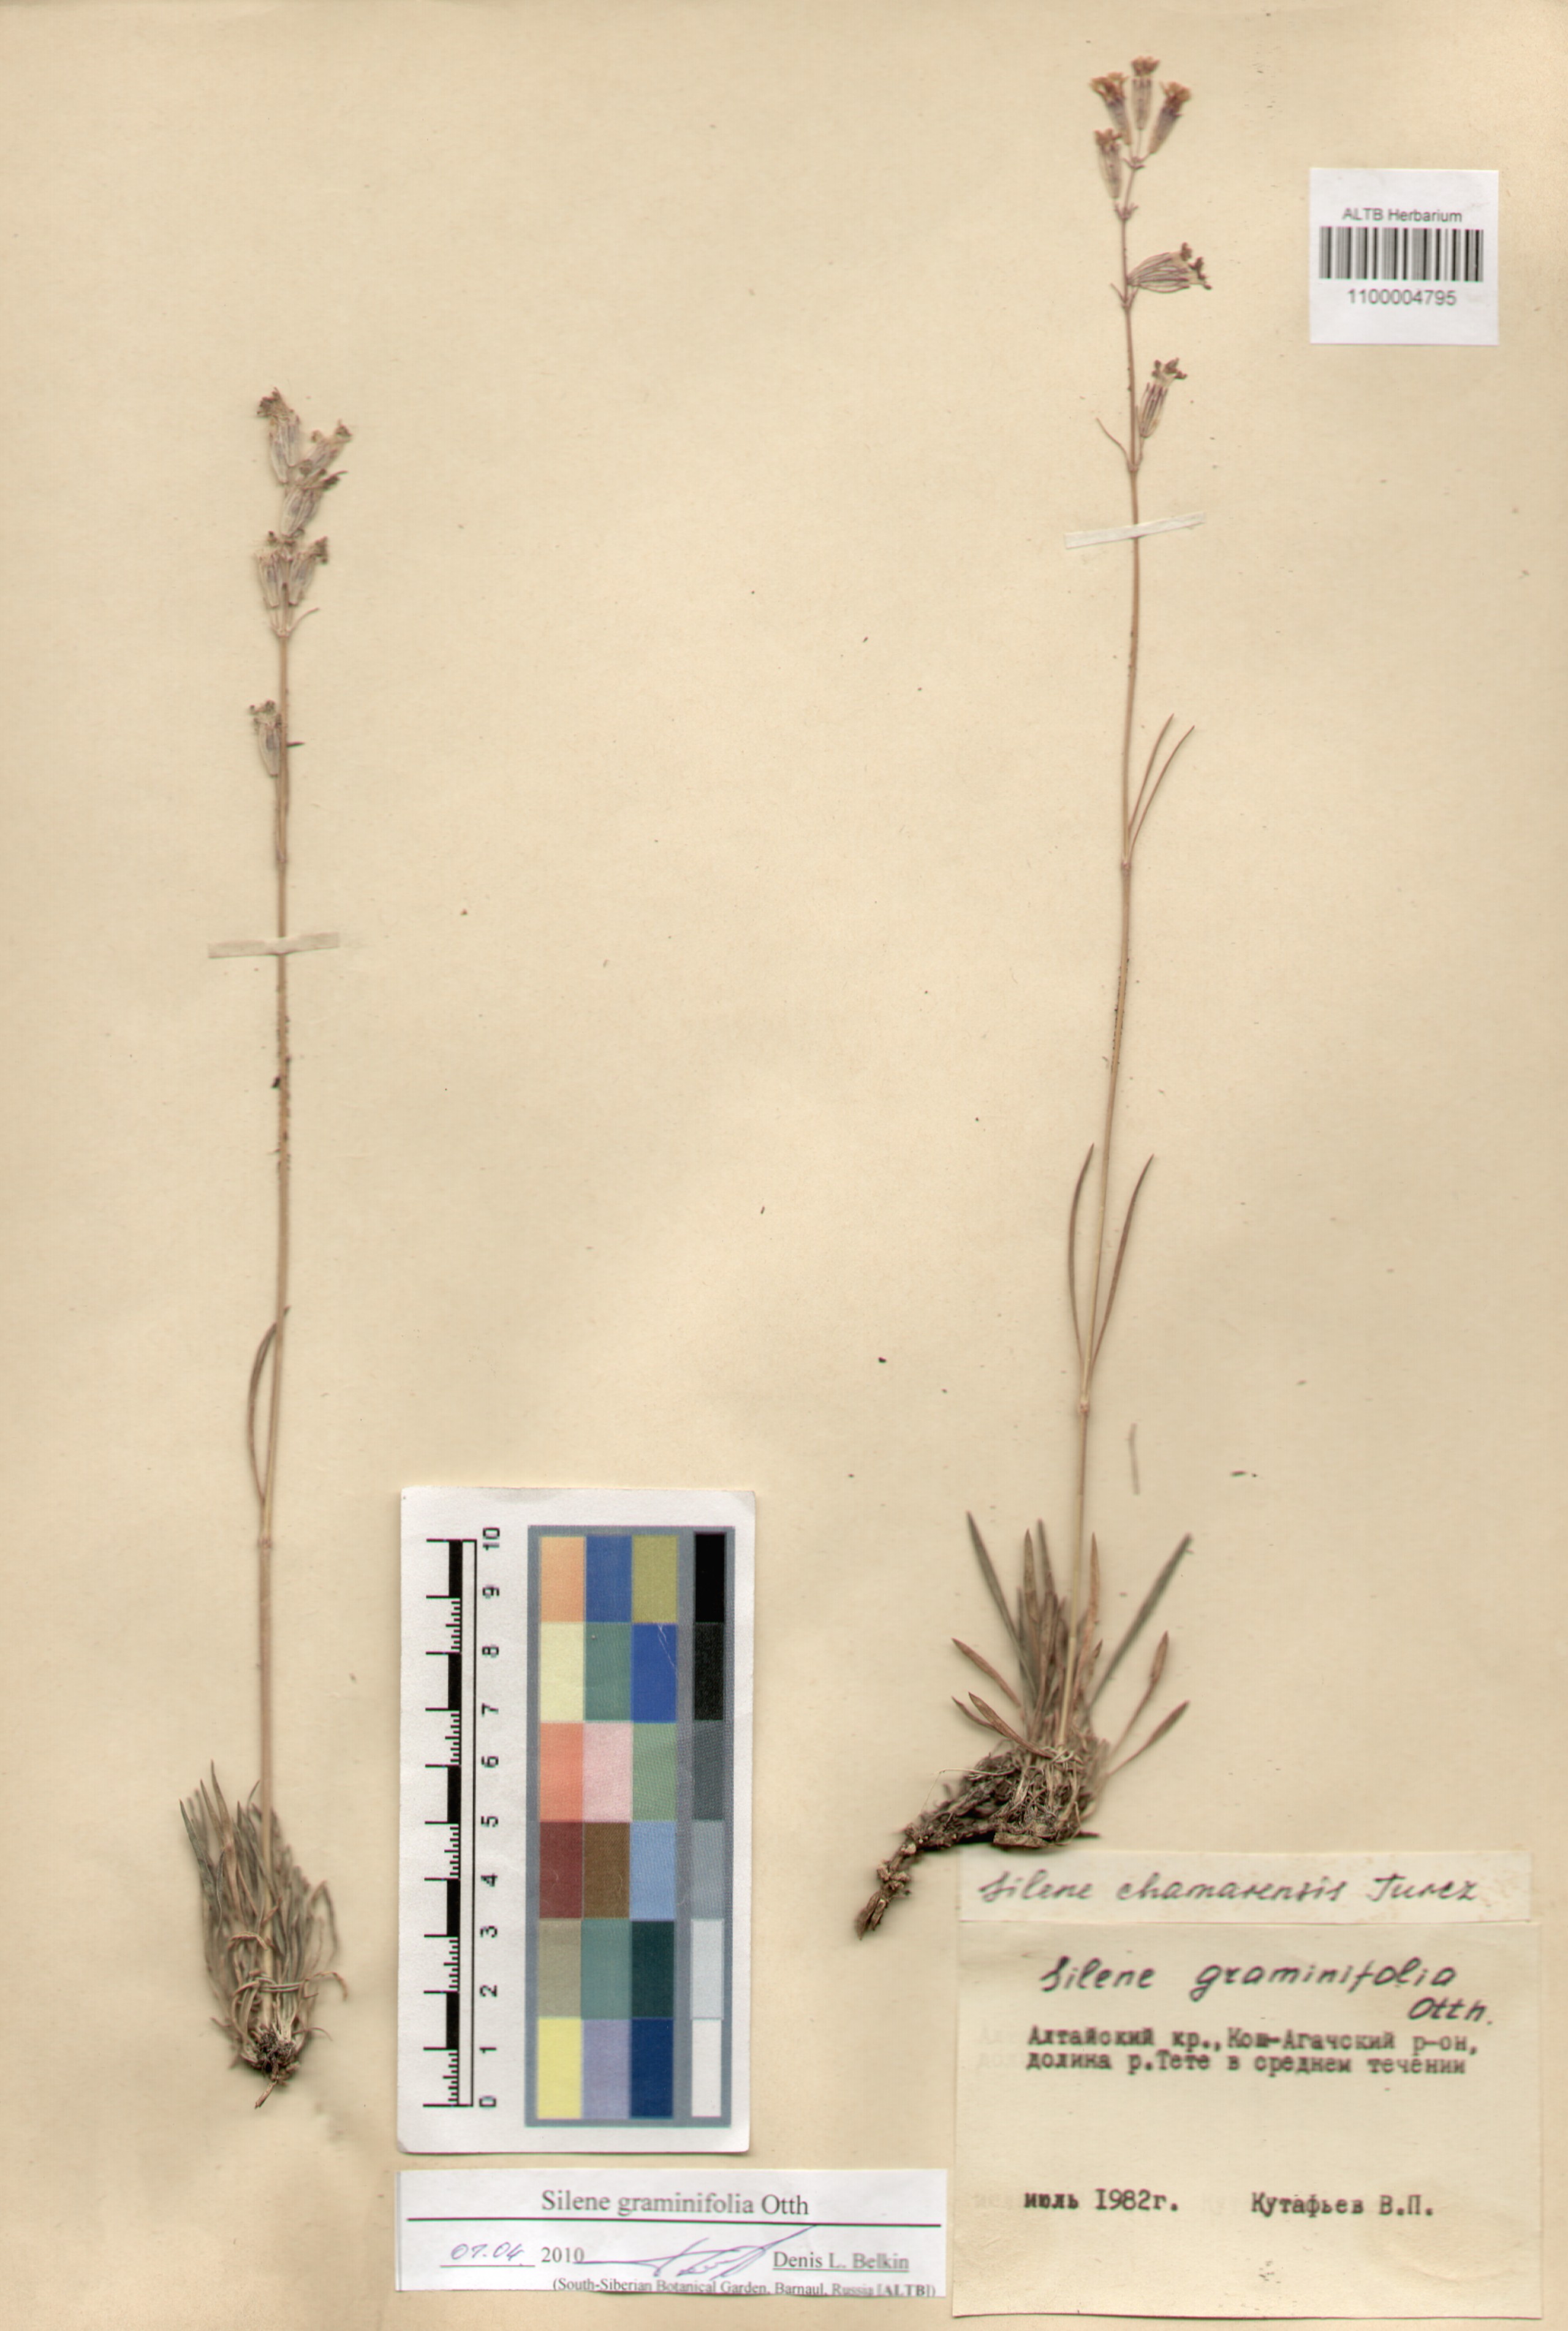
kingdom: Plantae
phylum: Tracheophyta
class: Magnoliopsida
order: Caryophyllales
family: Caryophyllaceae
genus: Silene
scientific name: Silene graminifolia
